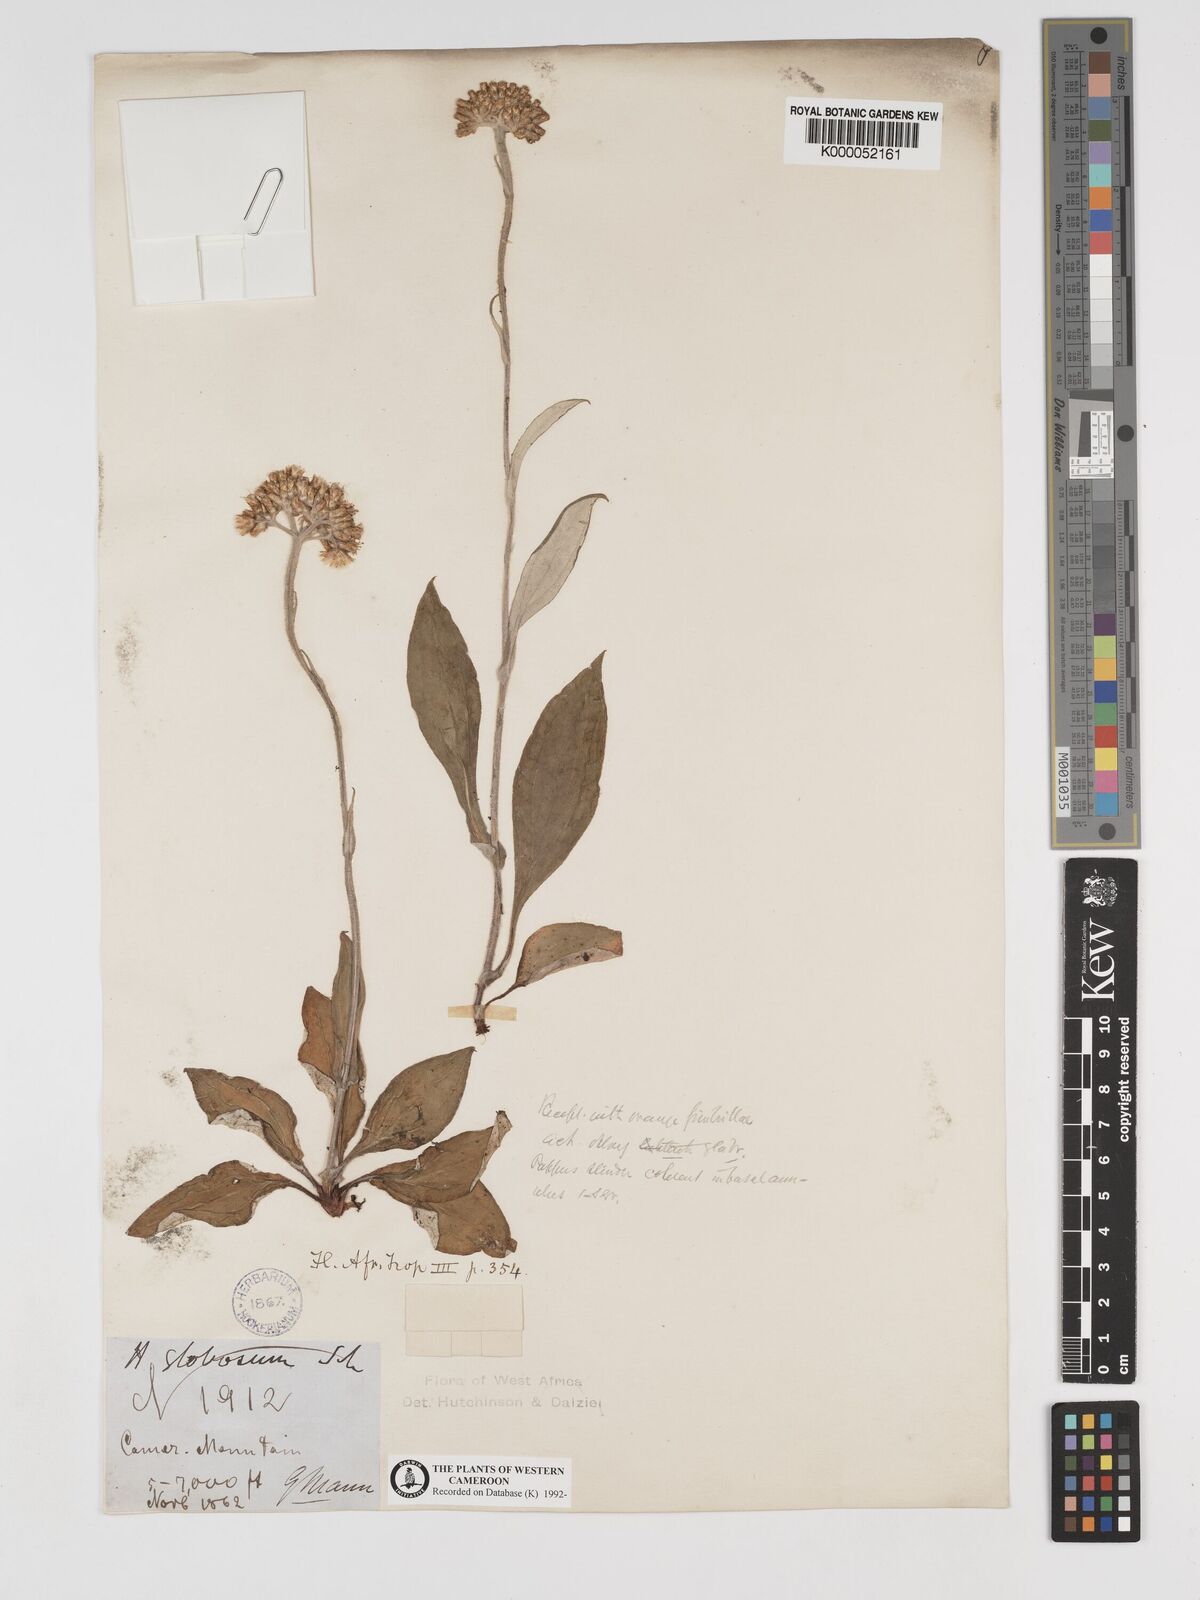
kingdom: Plantae
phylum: Tracheophyta
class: Magnoliopsida
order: Asterales
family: Asteraceae
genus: Helichrysum
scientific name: Helichrysum
